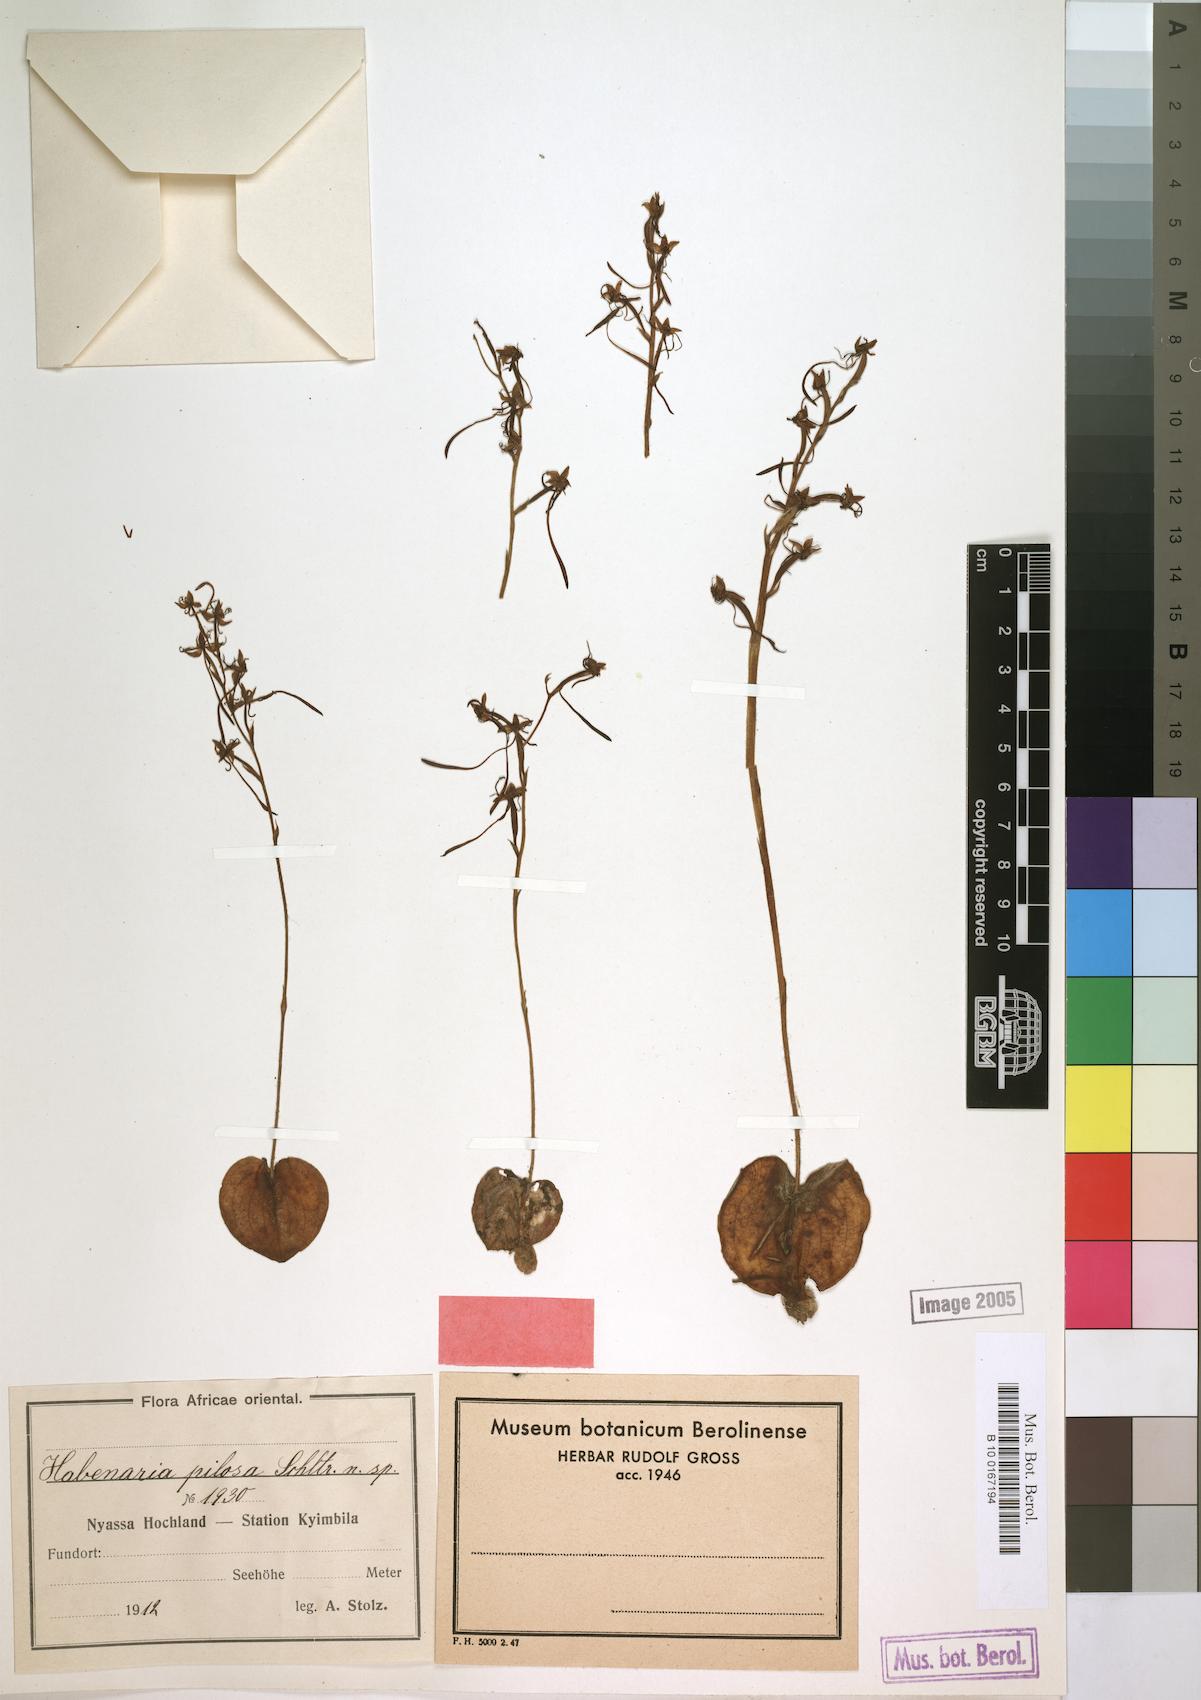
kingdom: Plantae
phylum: Tracheophyta
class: Liliopsida
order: Asparagales
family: Orchidaceae
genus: Habenaria
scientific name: Habenaria pilosa
